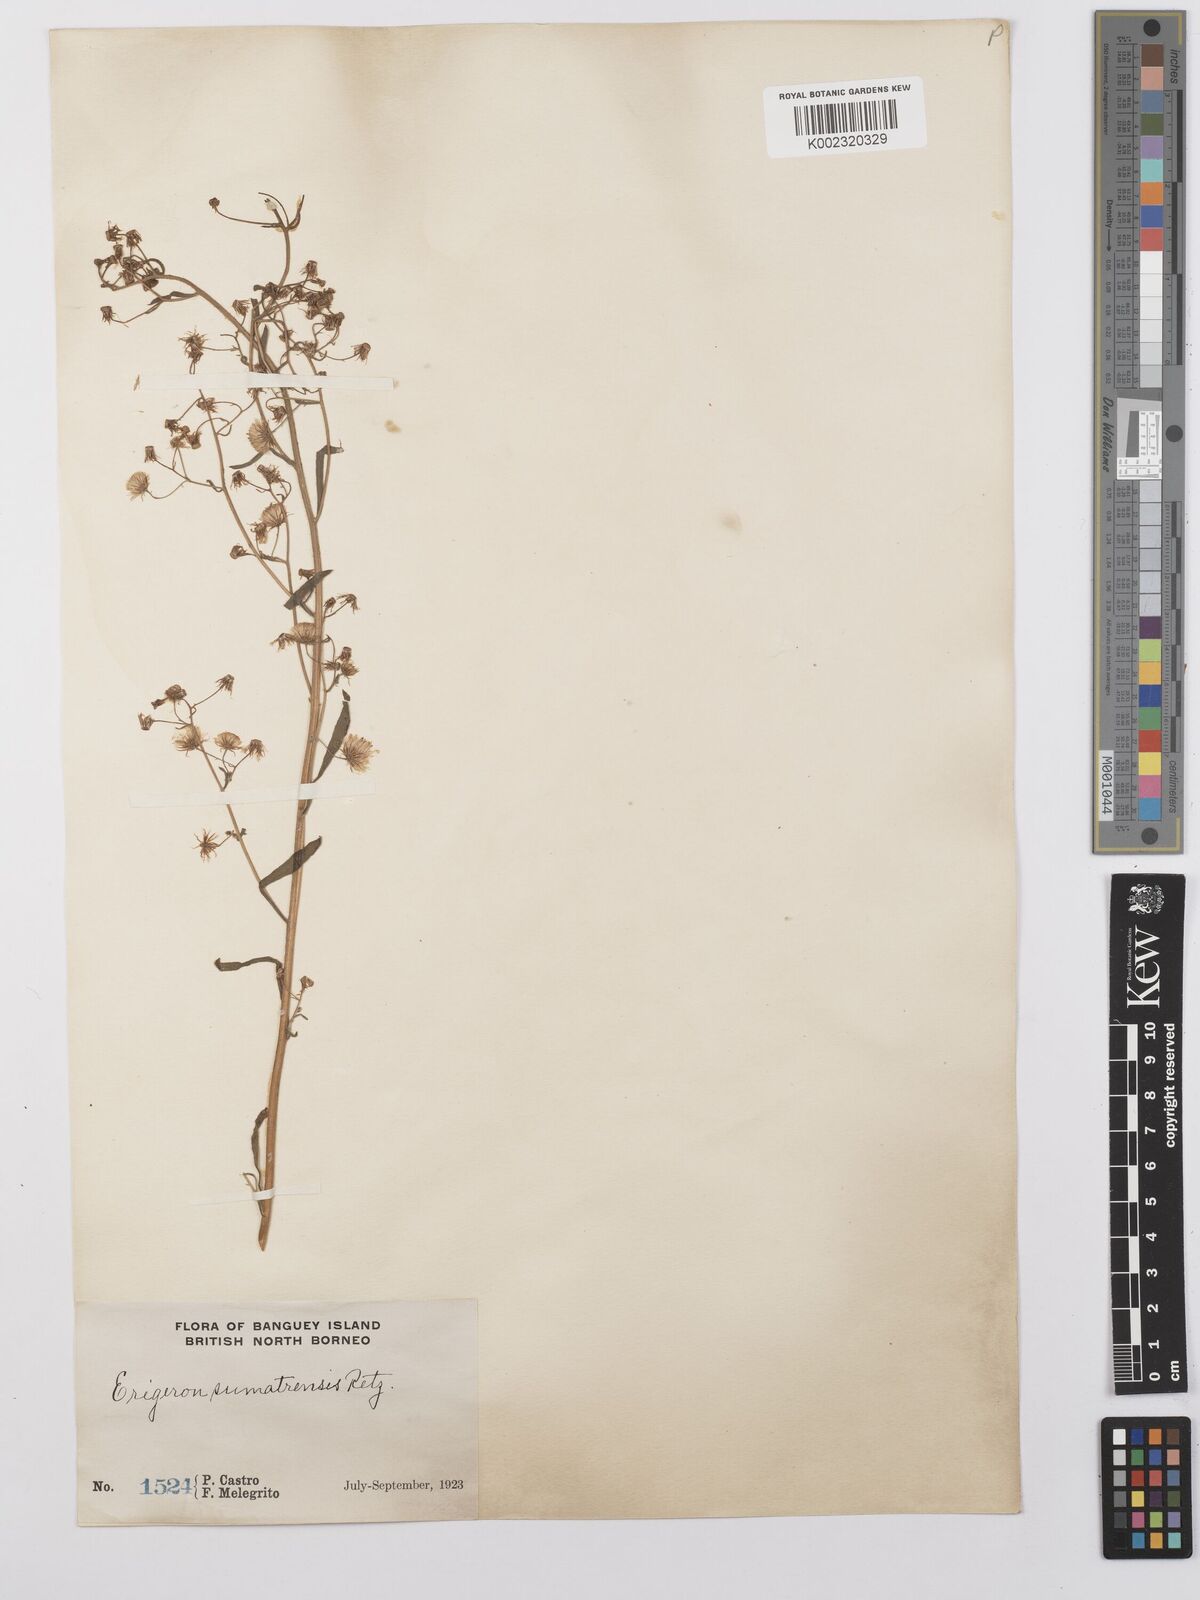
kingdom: Plantae
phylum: Tracheophyta
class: Magnoliopsida
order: Asterales
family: Asteraceae
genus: Erigeron
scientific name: Erigeron sumatrensis
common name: Daisy
